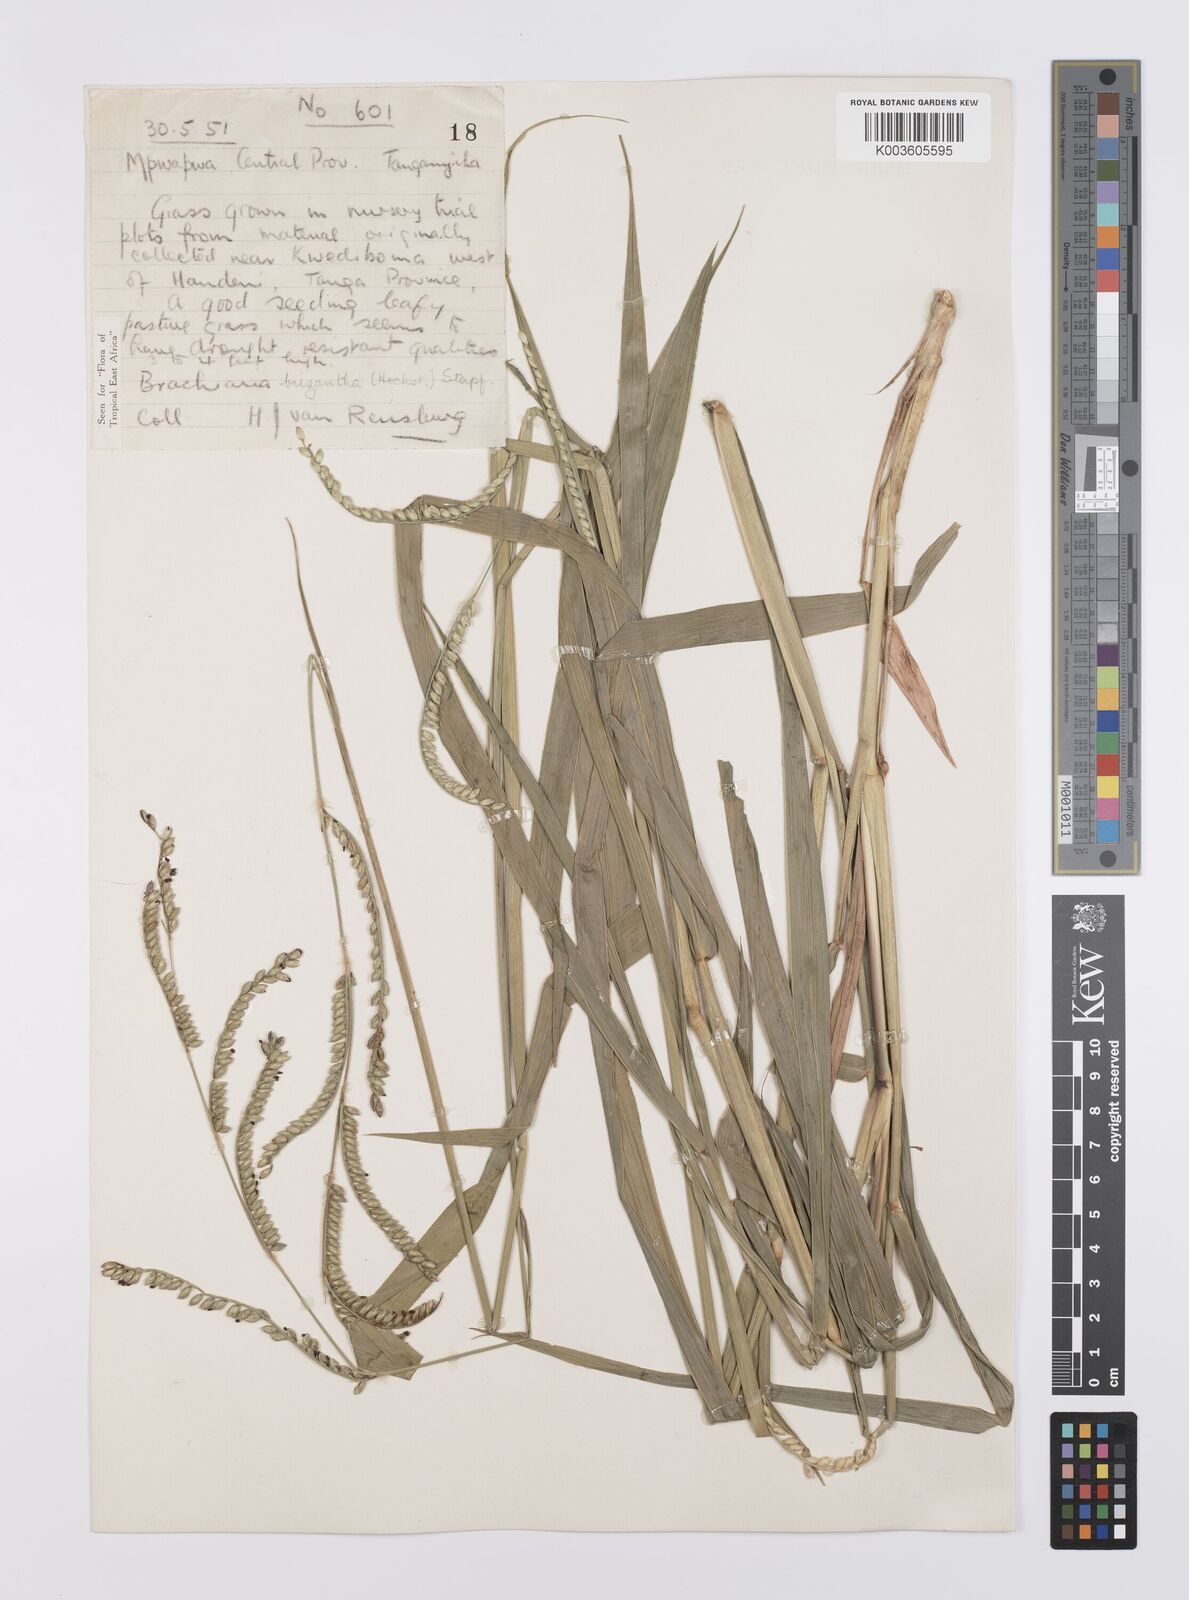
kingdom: Plantae
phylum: Tracheophyta
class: Liliopsida
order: Poales
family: Poaceae
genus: Urochloa
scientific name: Urochloa brizantha
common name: Palisade signalgrass
